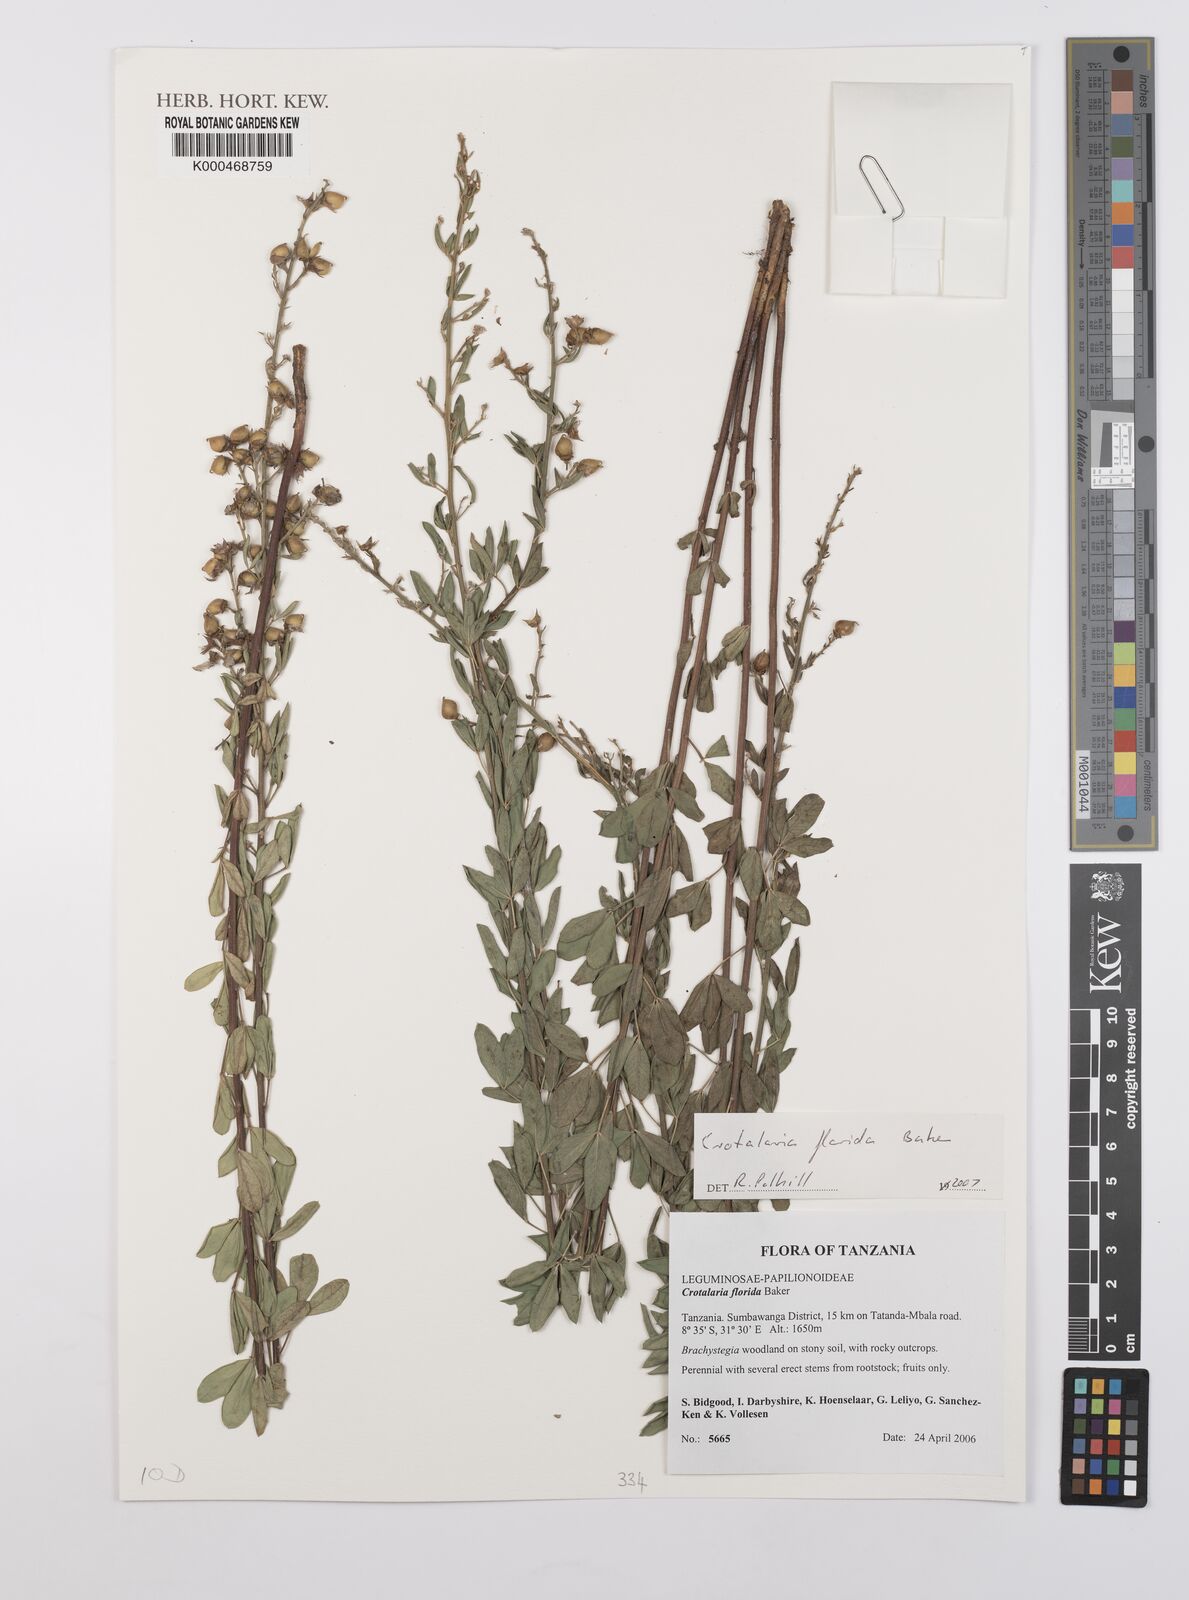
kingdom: Plantae
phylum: Tracheophyta
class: Magnoliopsida
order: Fabales
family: Fabaceae
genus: Crotalaria
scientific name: Crotalaria florida
